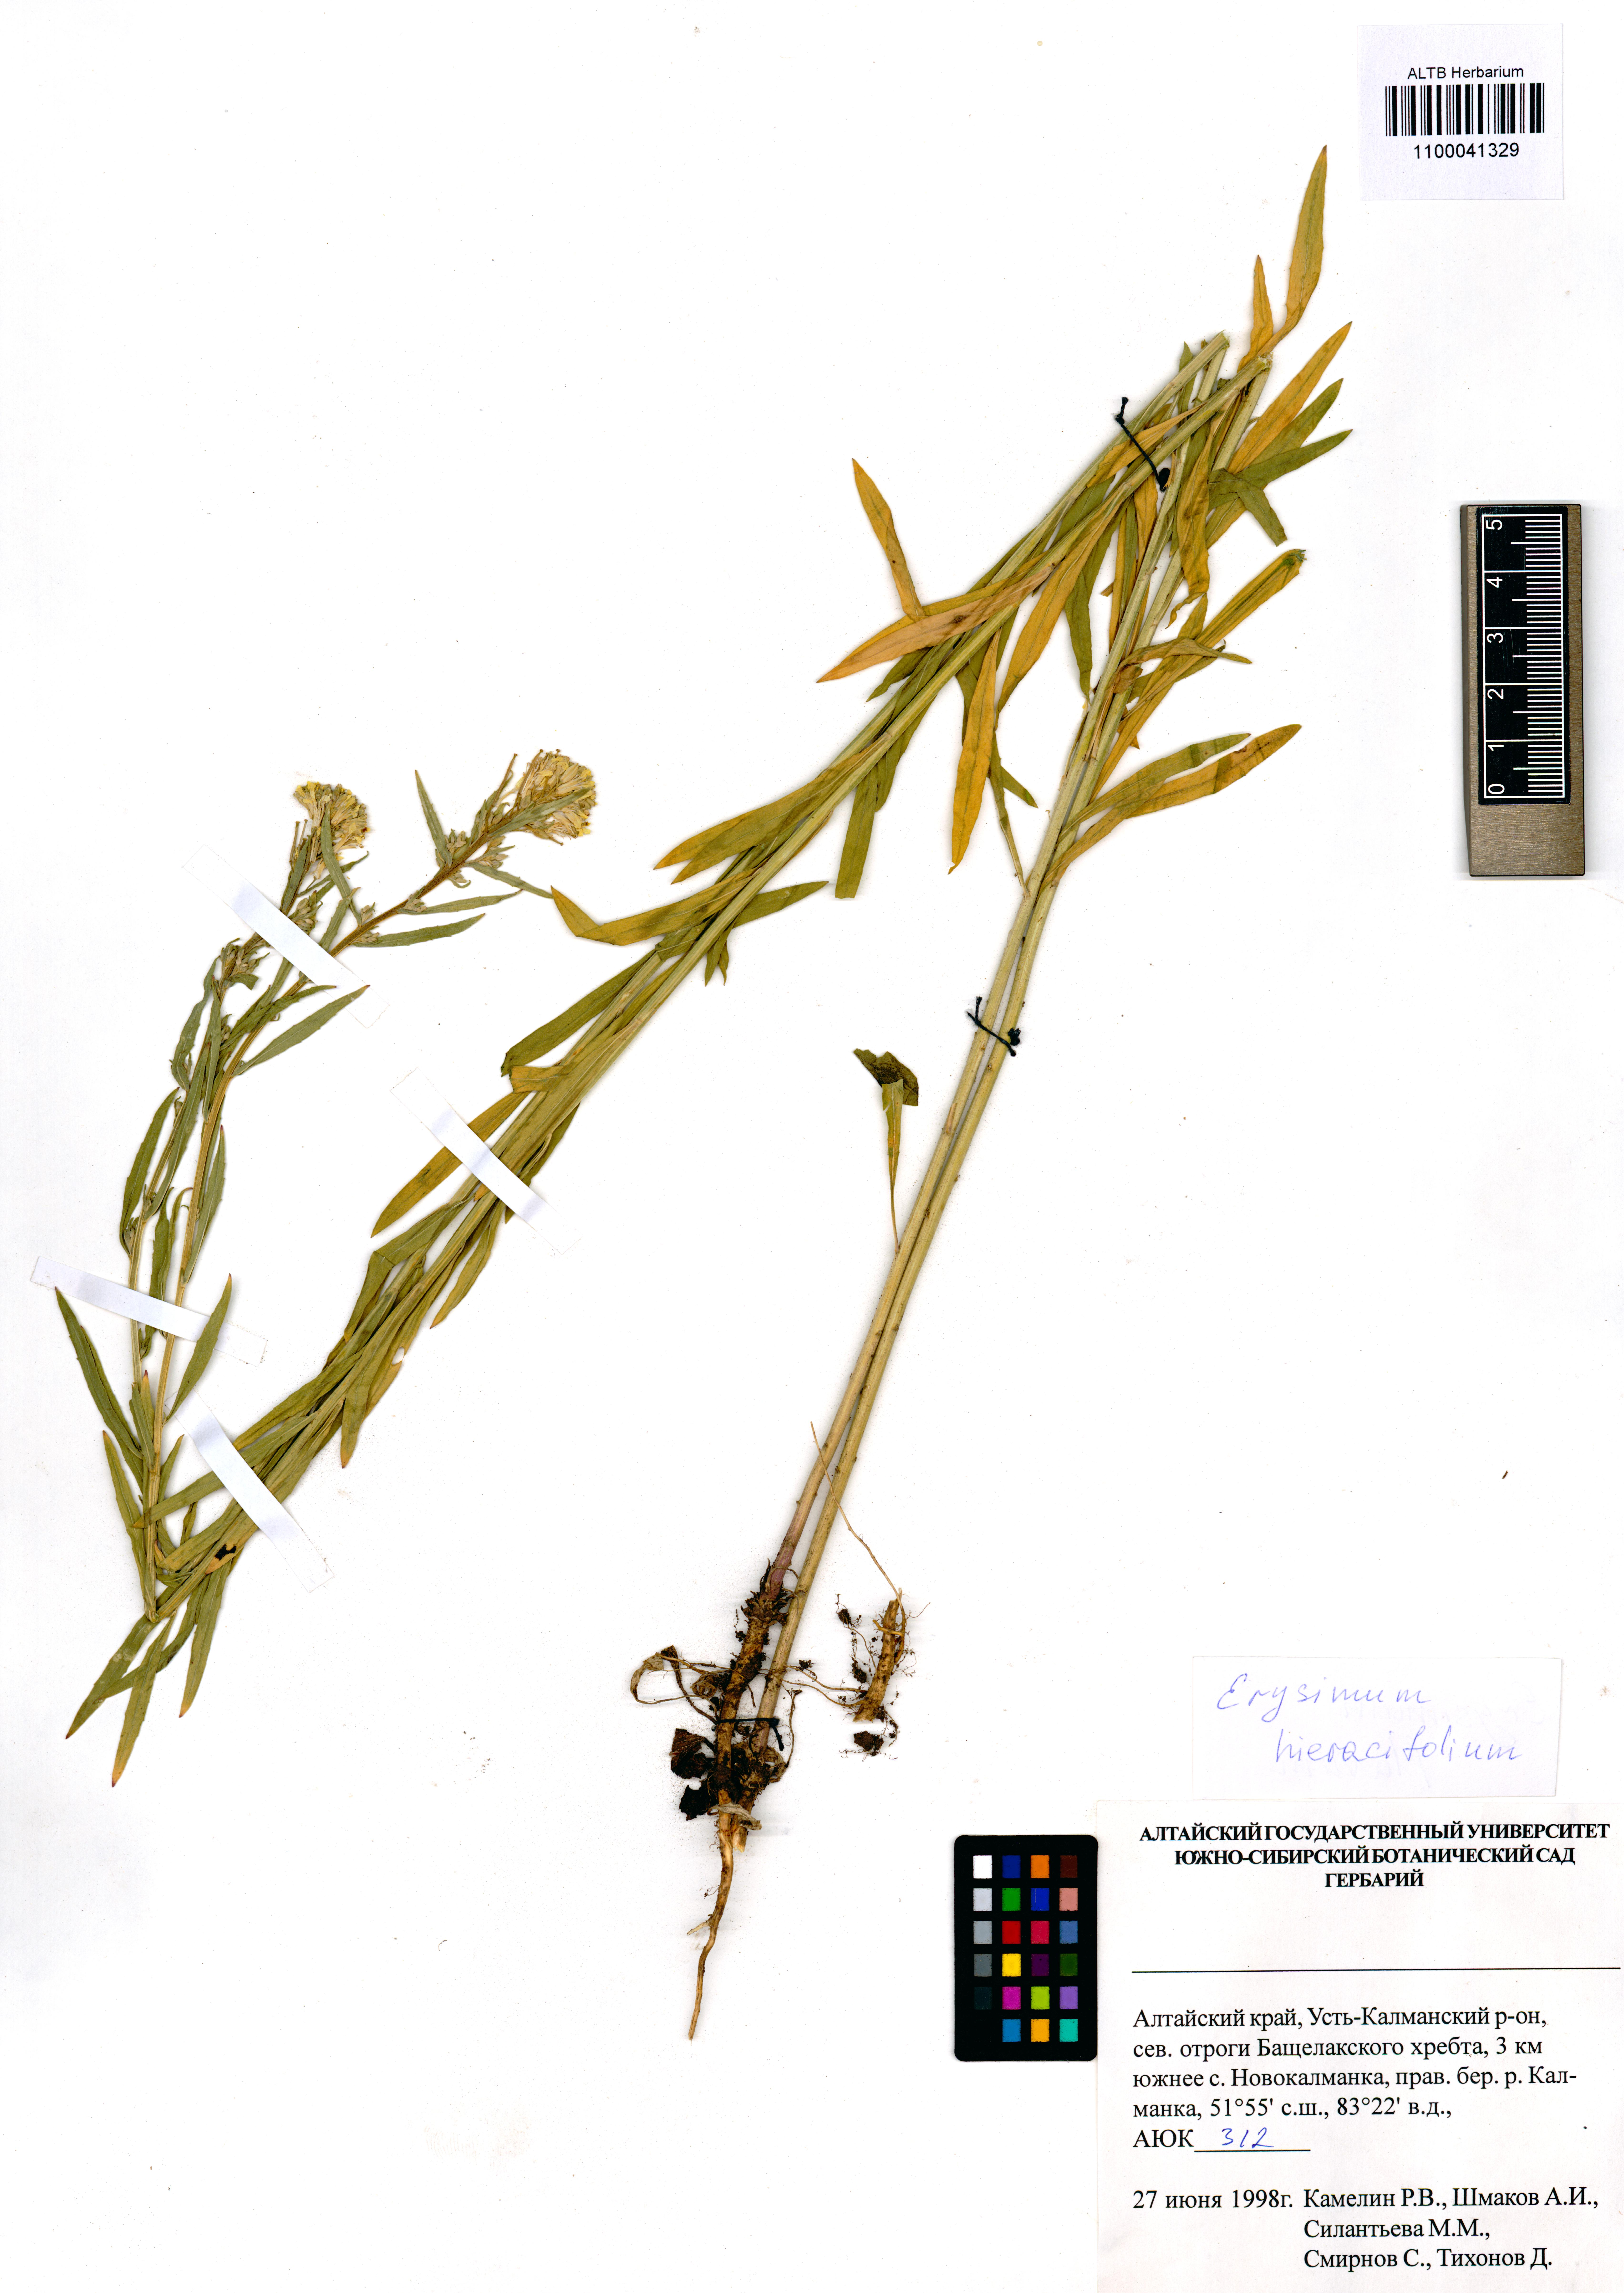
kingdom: Plantae
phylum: Tracheophyta
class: Magnoliopsida
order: Brassicales
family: Brassicaceae
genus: Erysimum
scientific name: Erysimum hieraciifolium
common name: European wallflower
